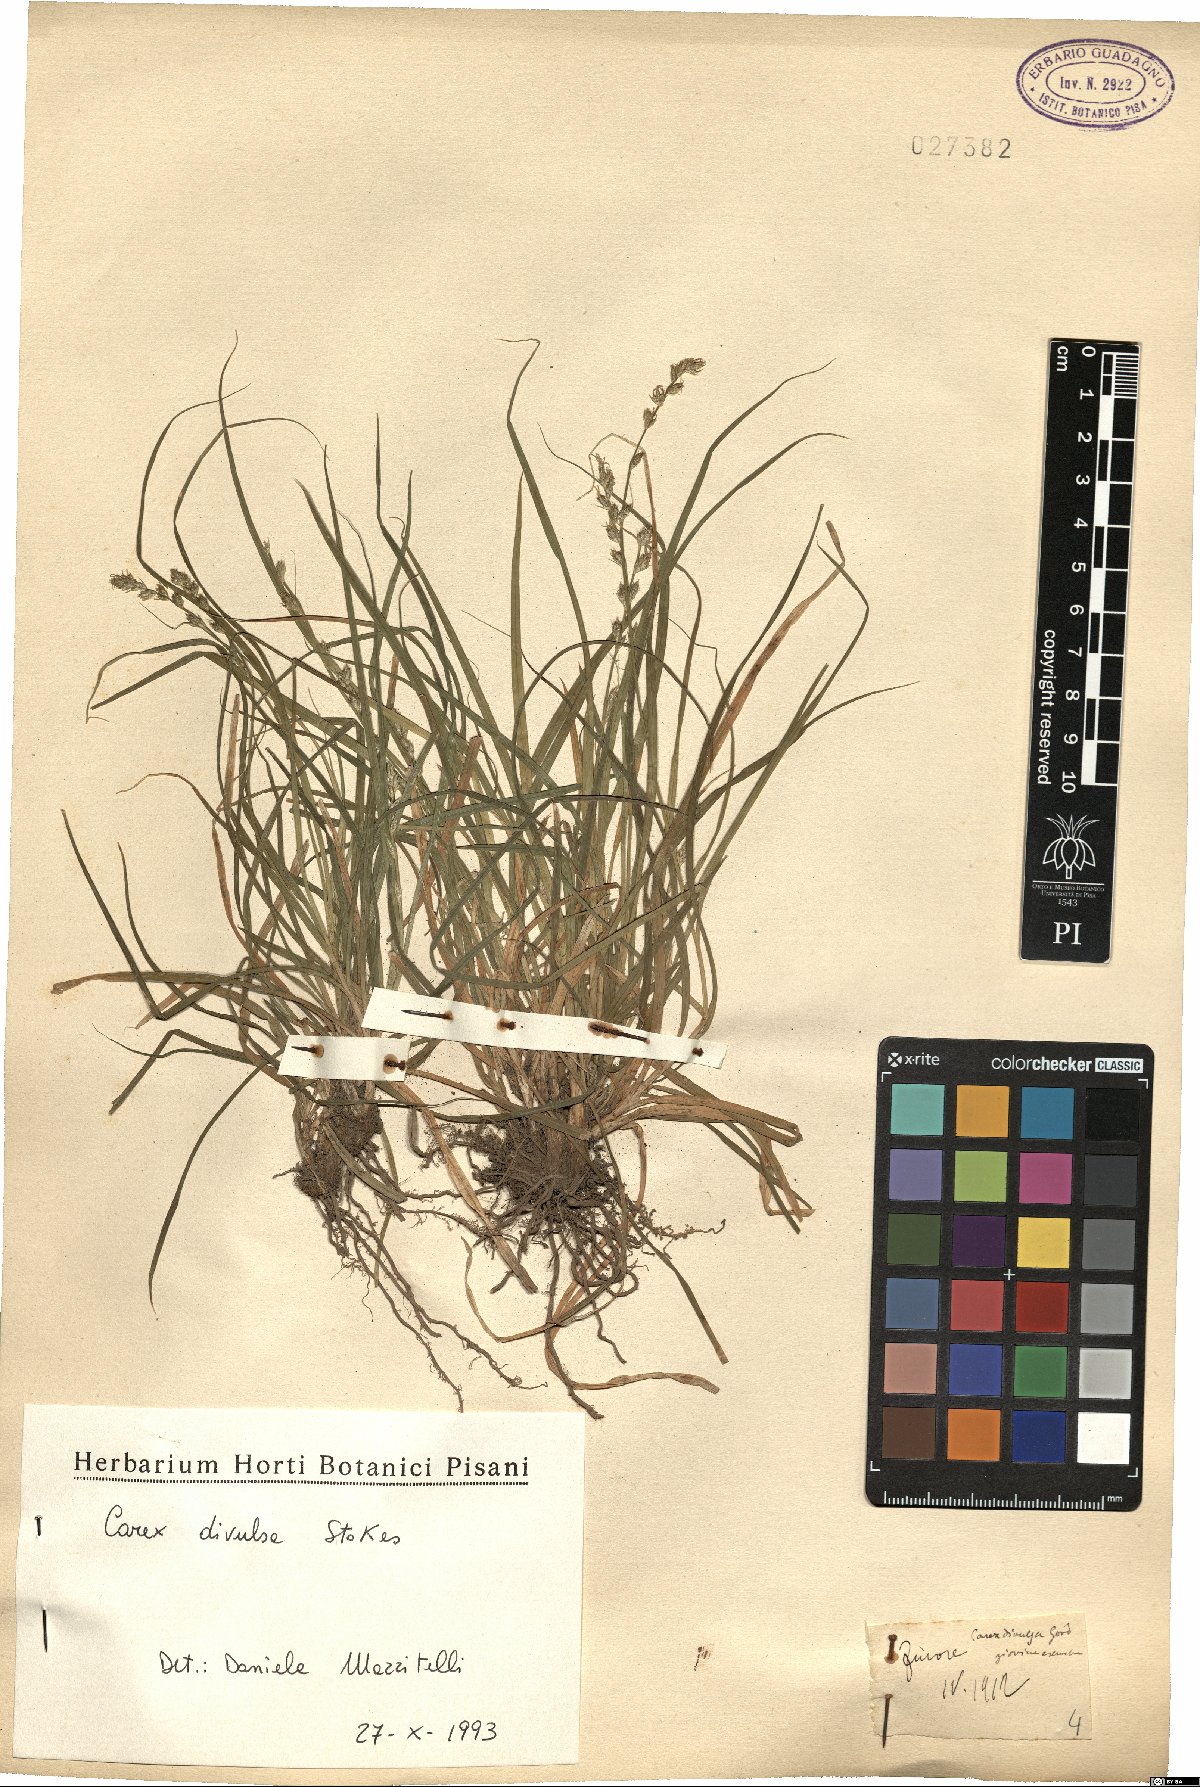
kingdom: Plantae
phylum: Tracheophyta
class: Liliopsida
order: Poales
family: Cyperaceae
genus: Carex
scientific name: Carex divulsa
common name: Grassland sedge
